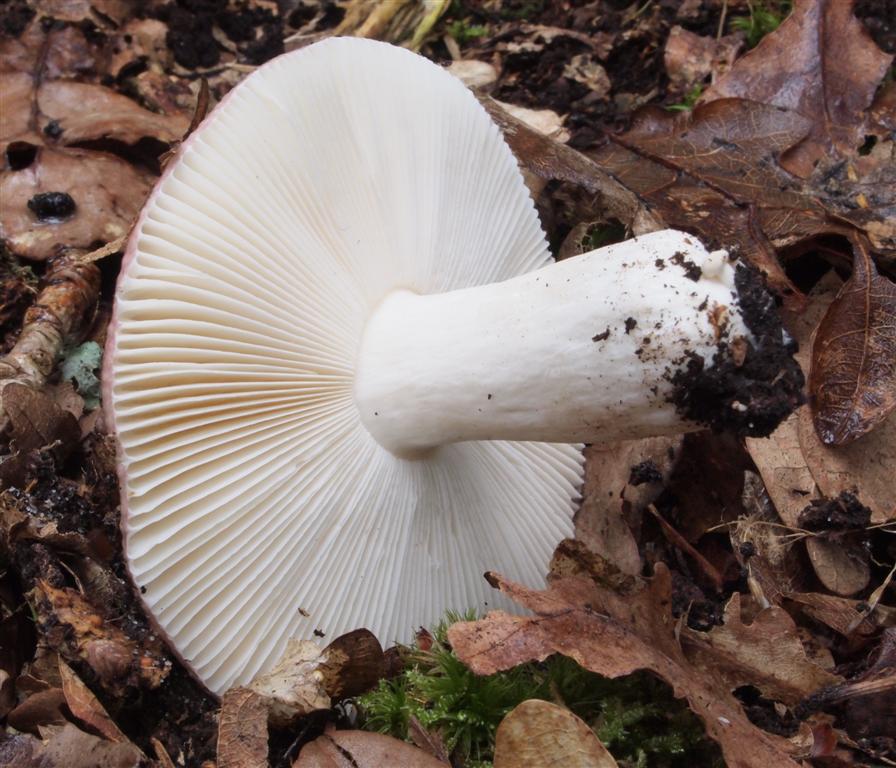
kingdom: Fungi
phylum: Basidiomycota
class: Agaricomycetes
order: Russulales
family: Russulaceae
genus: Russula
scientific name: Russula
